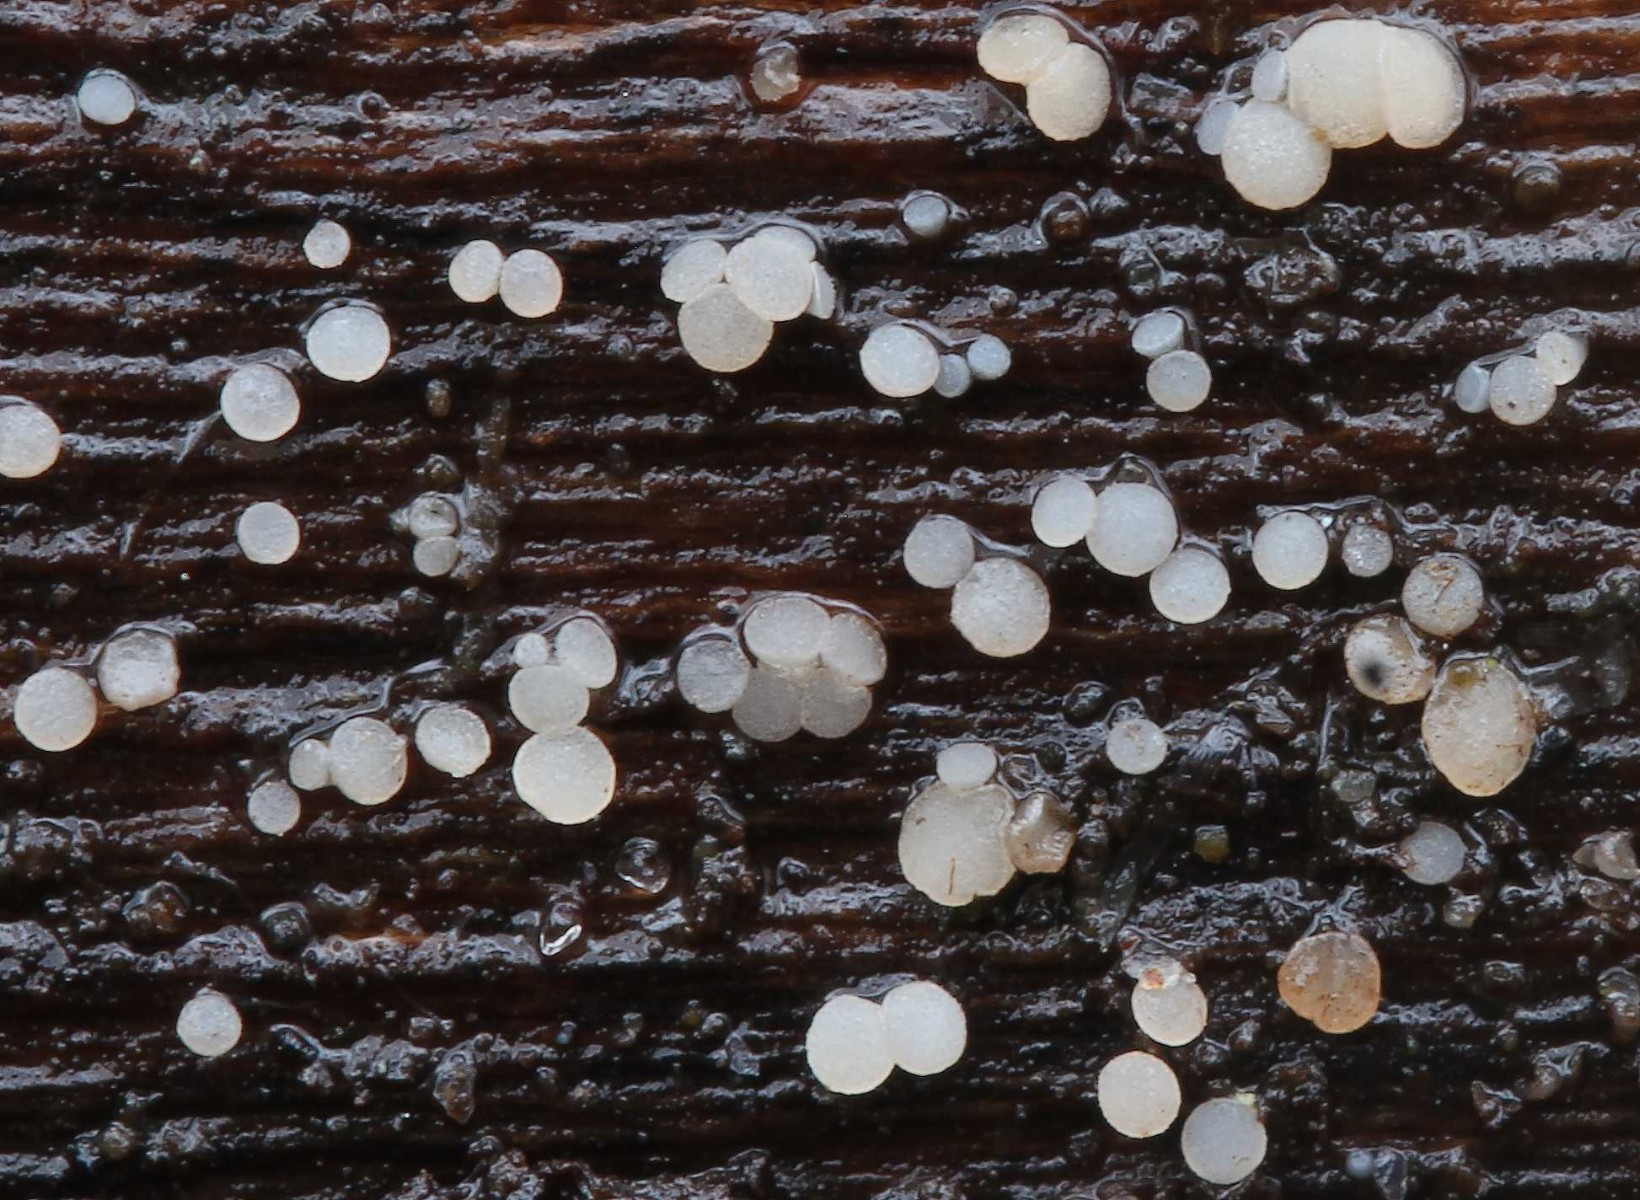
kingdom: Fungi
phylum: Ascomycota
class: Leotiomycetes
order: Helotiales
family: Pezizellaceae
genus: Allophylaria
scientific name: Allophylaria macrospora
